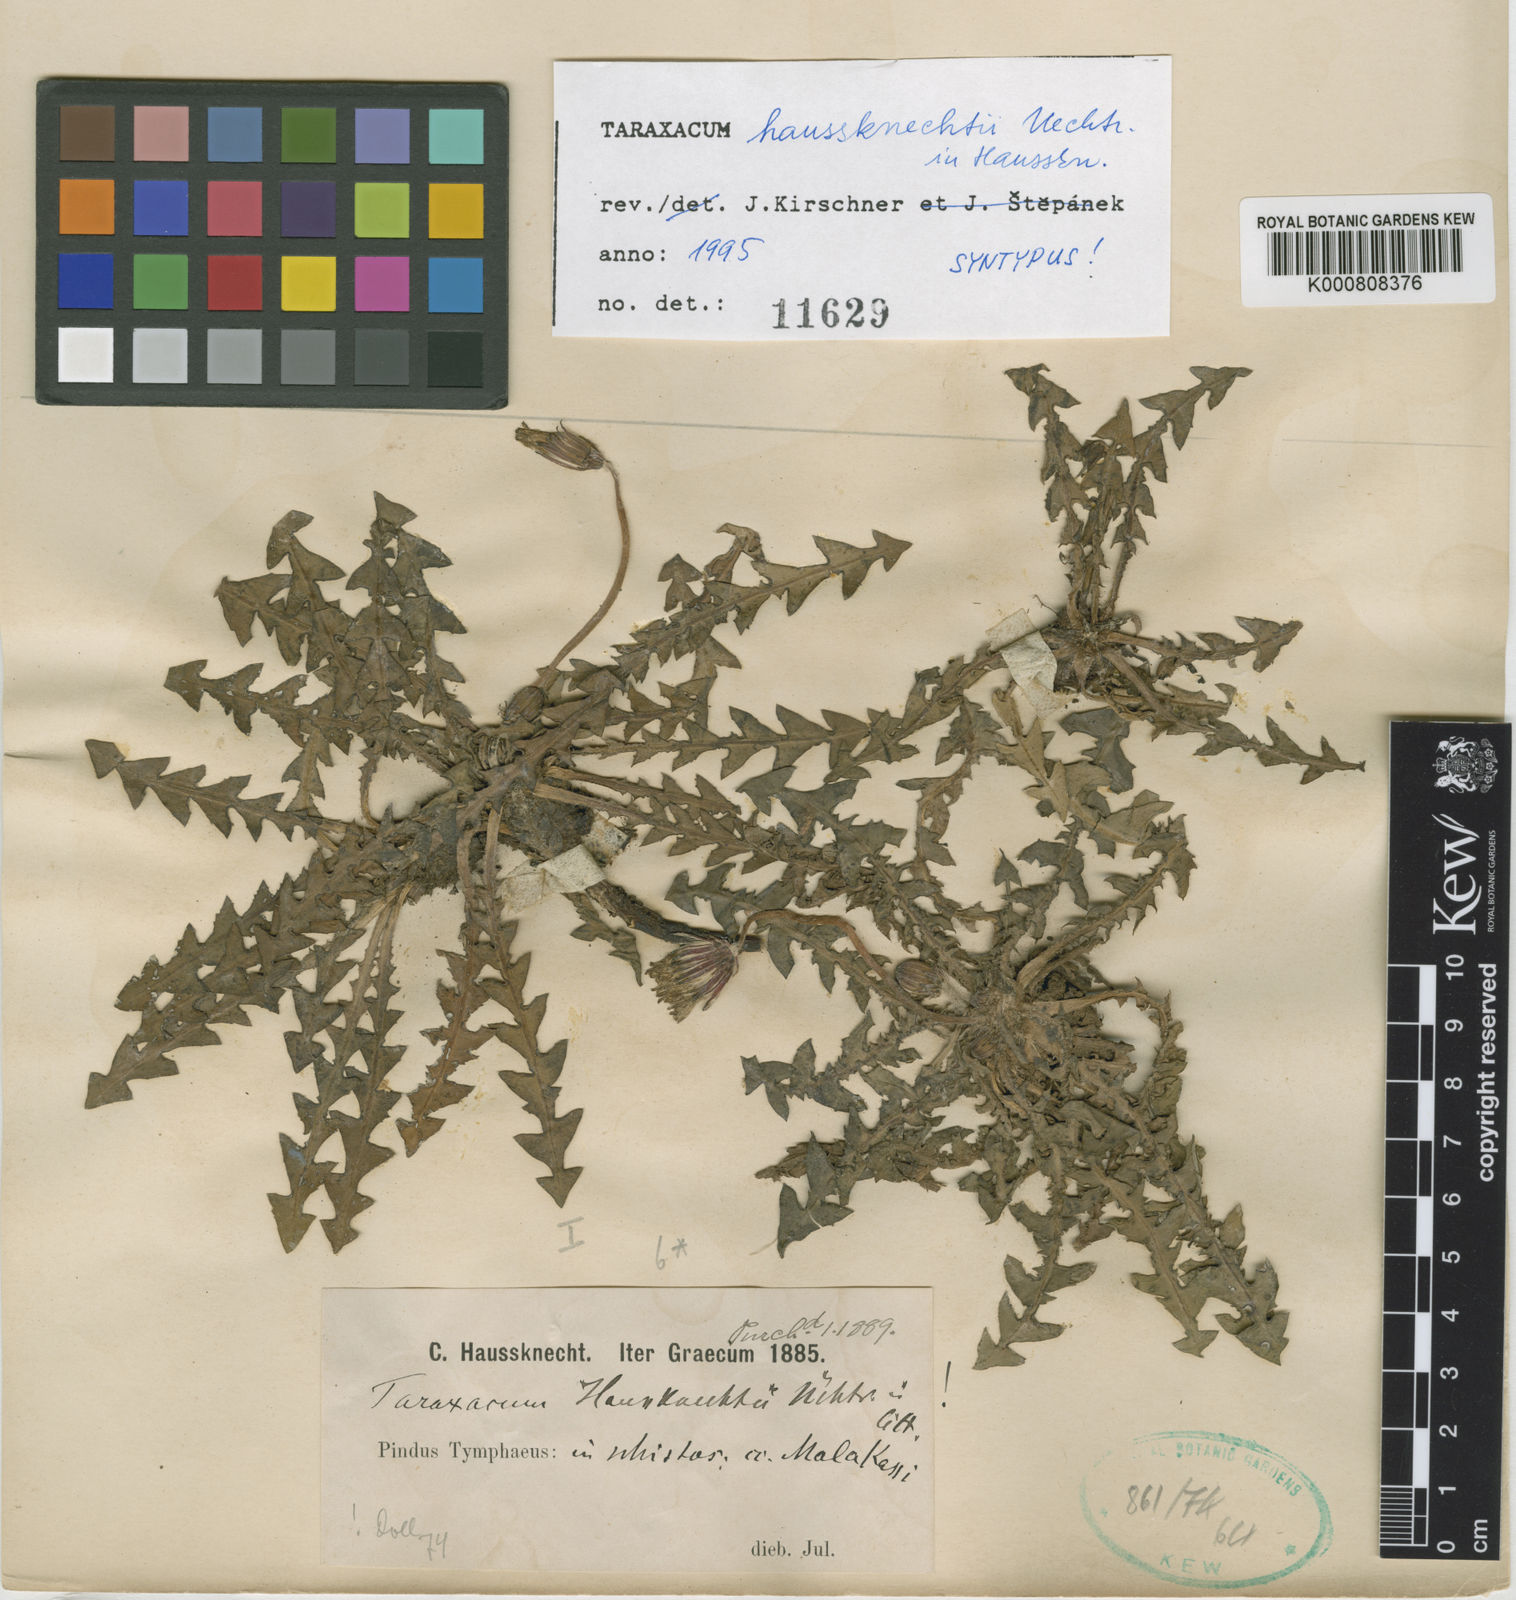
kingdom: Plantae
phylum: Tracheophyta
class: Magnoliopsida
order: Asterales
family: Asteraceae
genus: Taraxacum
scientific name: Taraxacum haussknechtii
